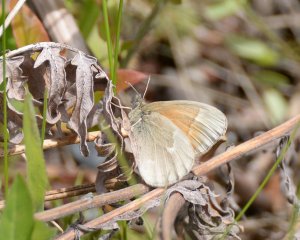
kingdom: Animalia
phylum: Arthropoda
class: Insecta
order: Lepidoptera
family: Nymphalidae
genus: Coenonympha
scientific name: Coenonympha tullia
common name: Large Heath
